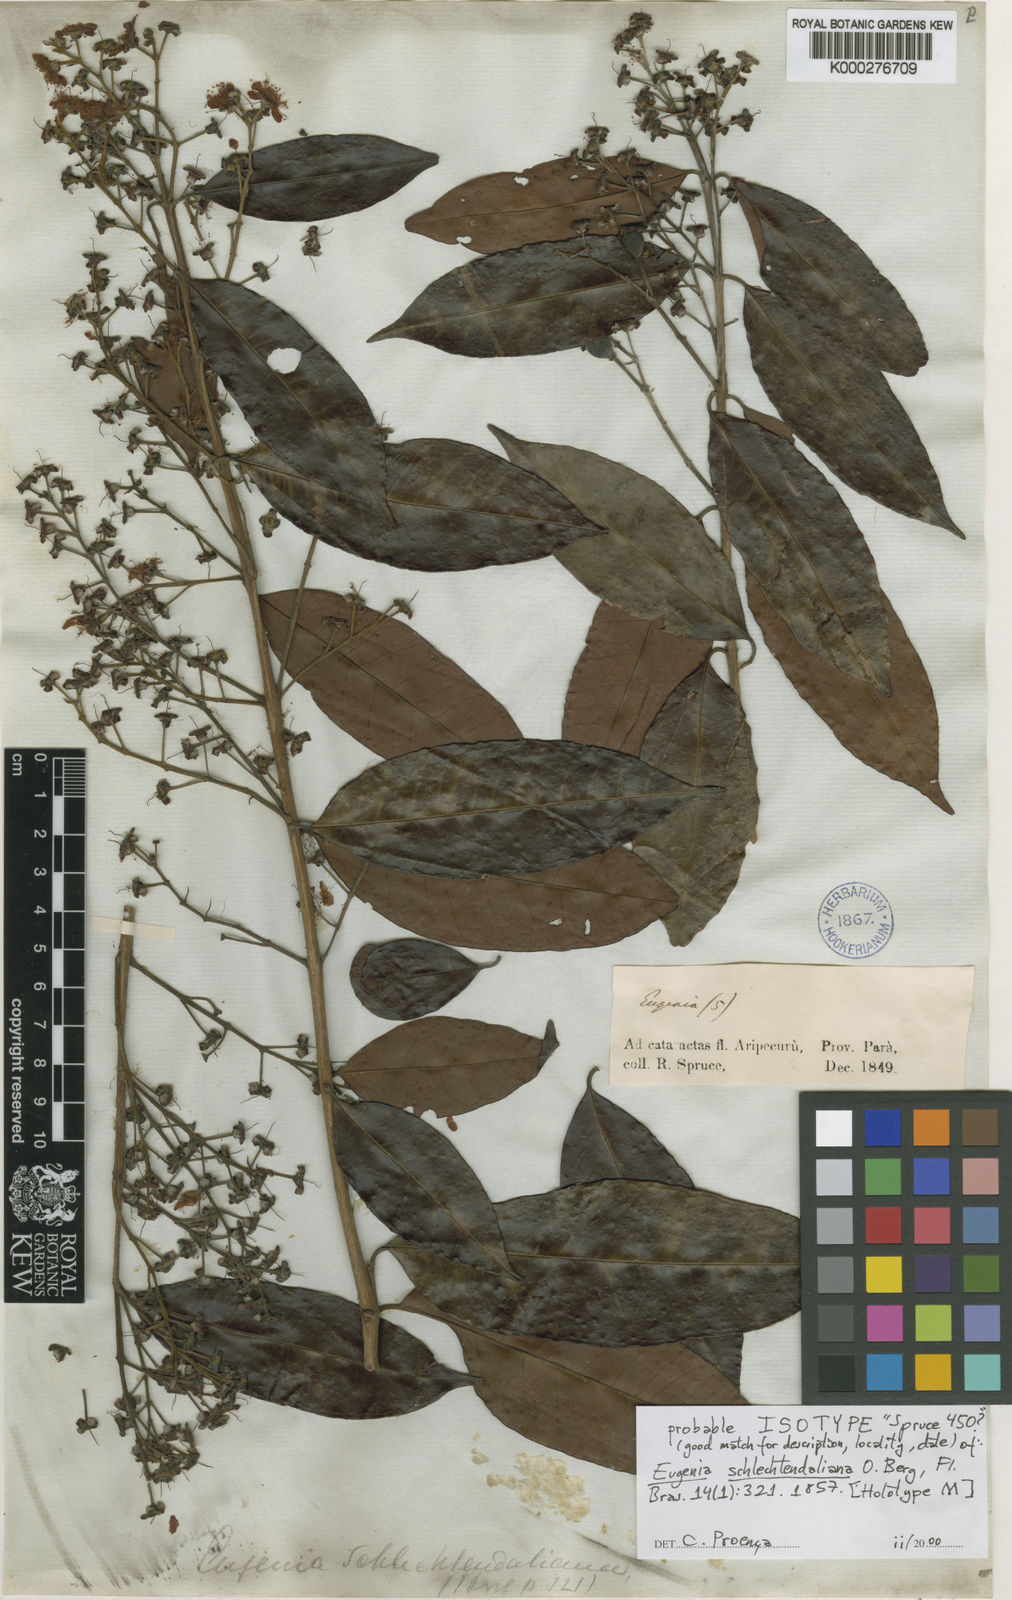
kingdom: Plantae
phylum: Tracheophyta
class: Magnoliopsida
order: Myrtales
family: Myrtaceae
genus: Eugenia
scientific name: Eugenia patens
